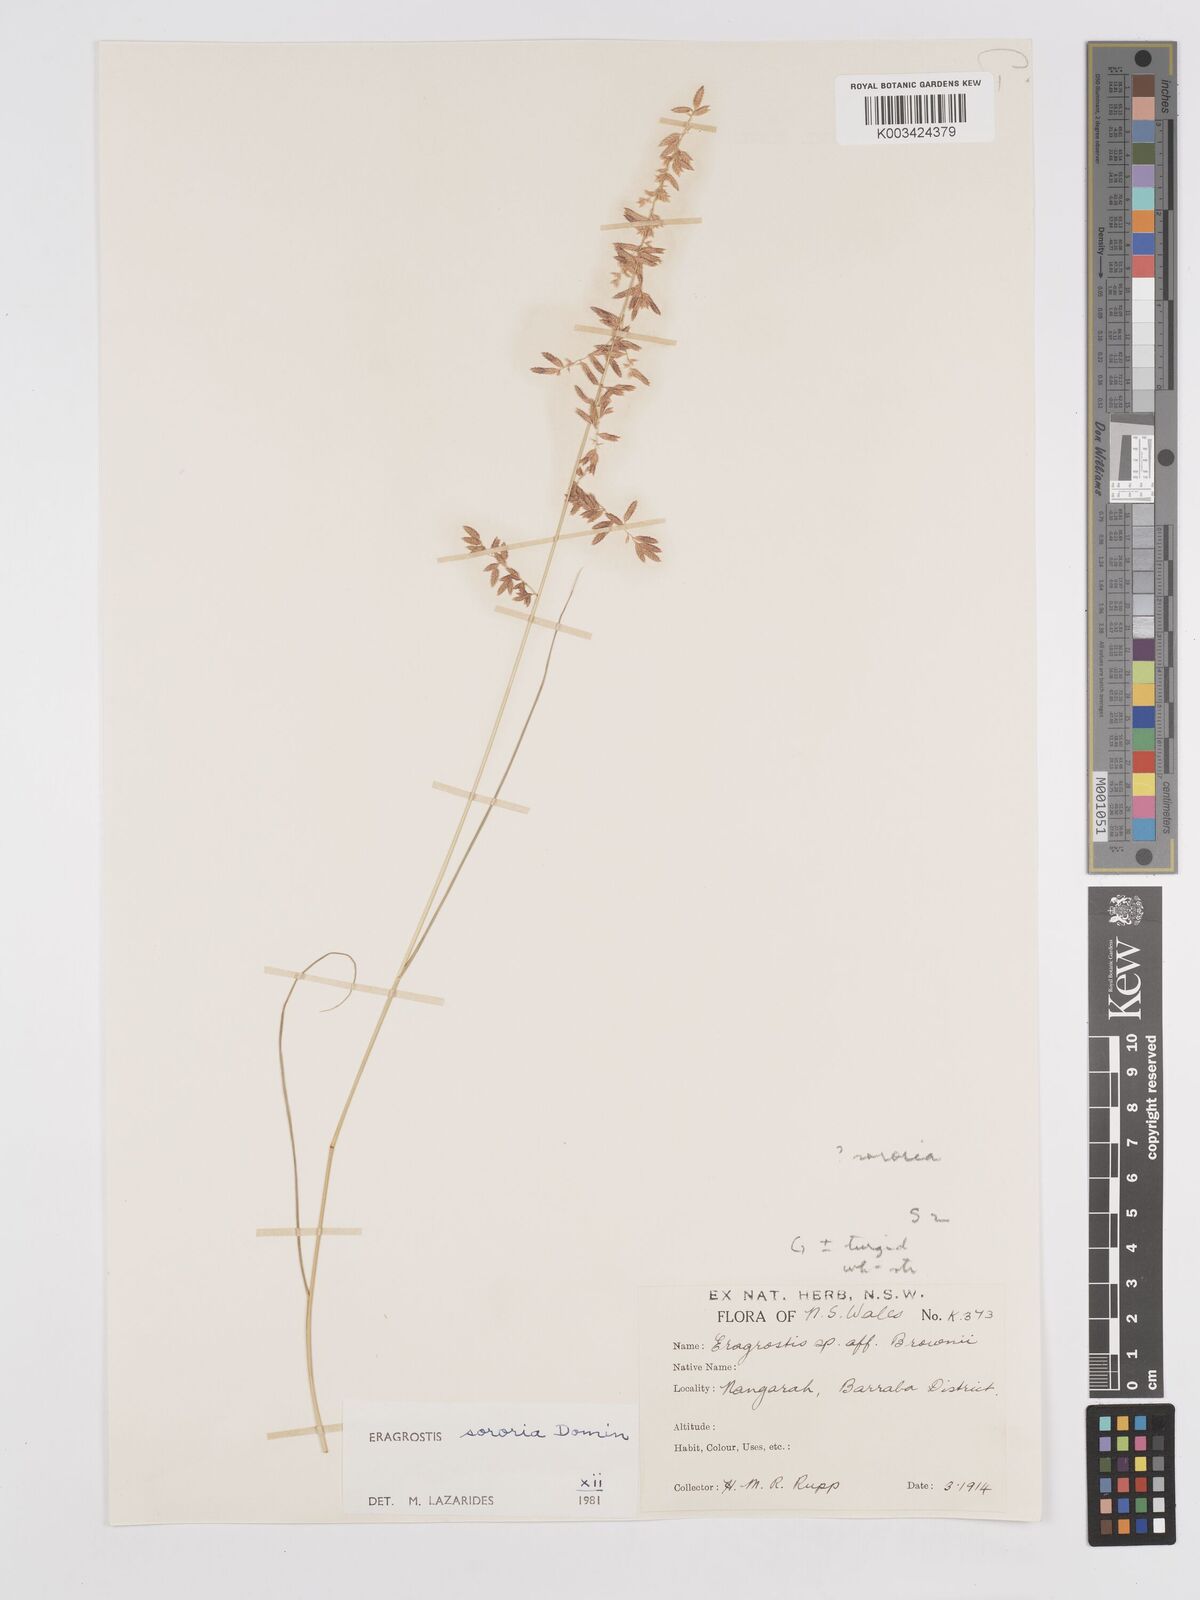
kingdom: Plantae
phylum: Tracheophyta
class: Liliopsida
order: Poales
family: Poaceae
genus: Eragrostis
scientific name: Eragrostis sororia
